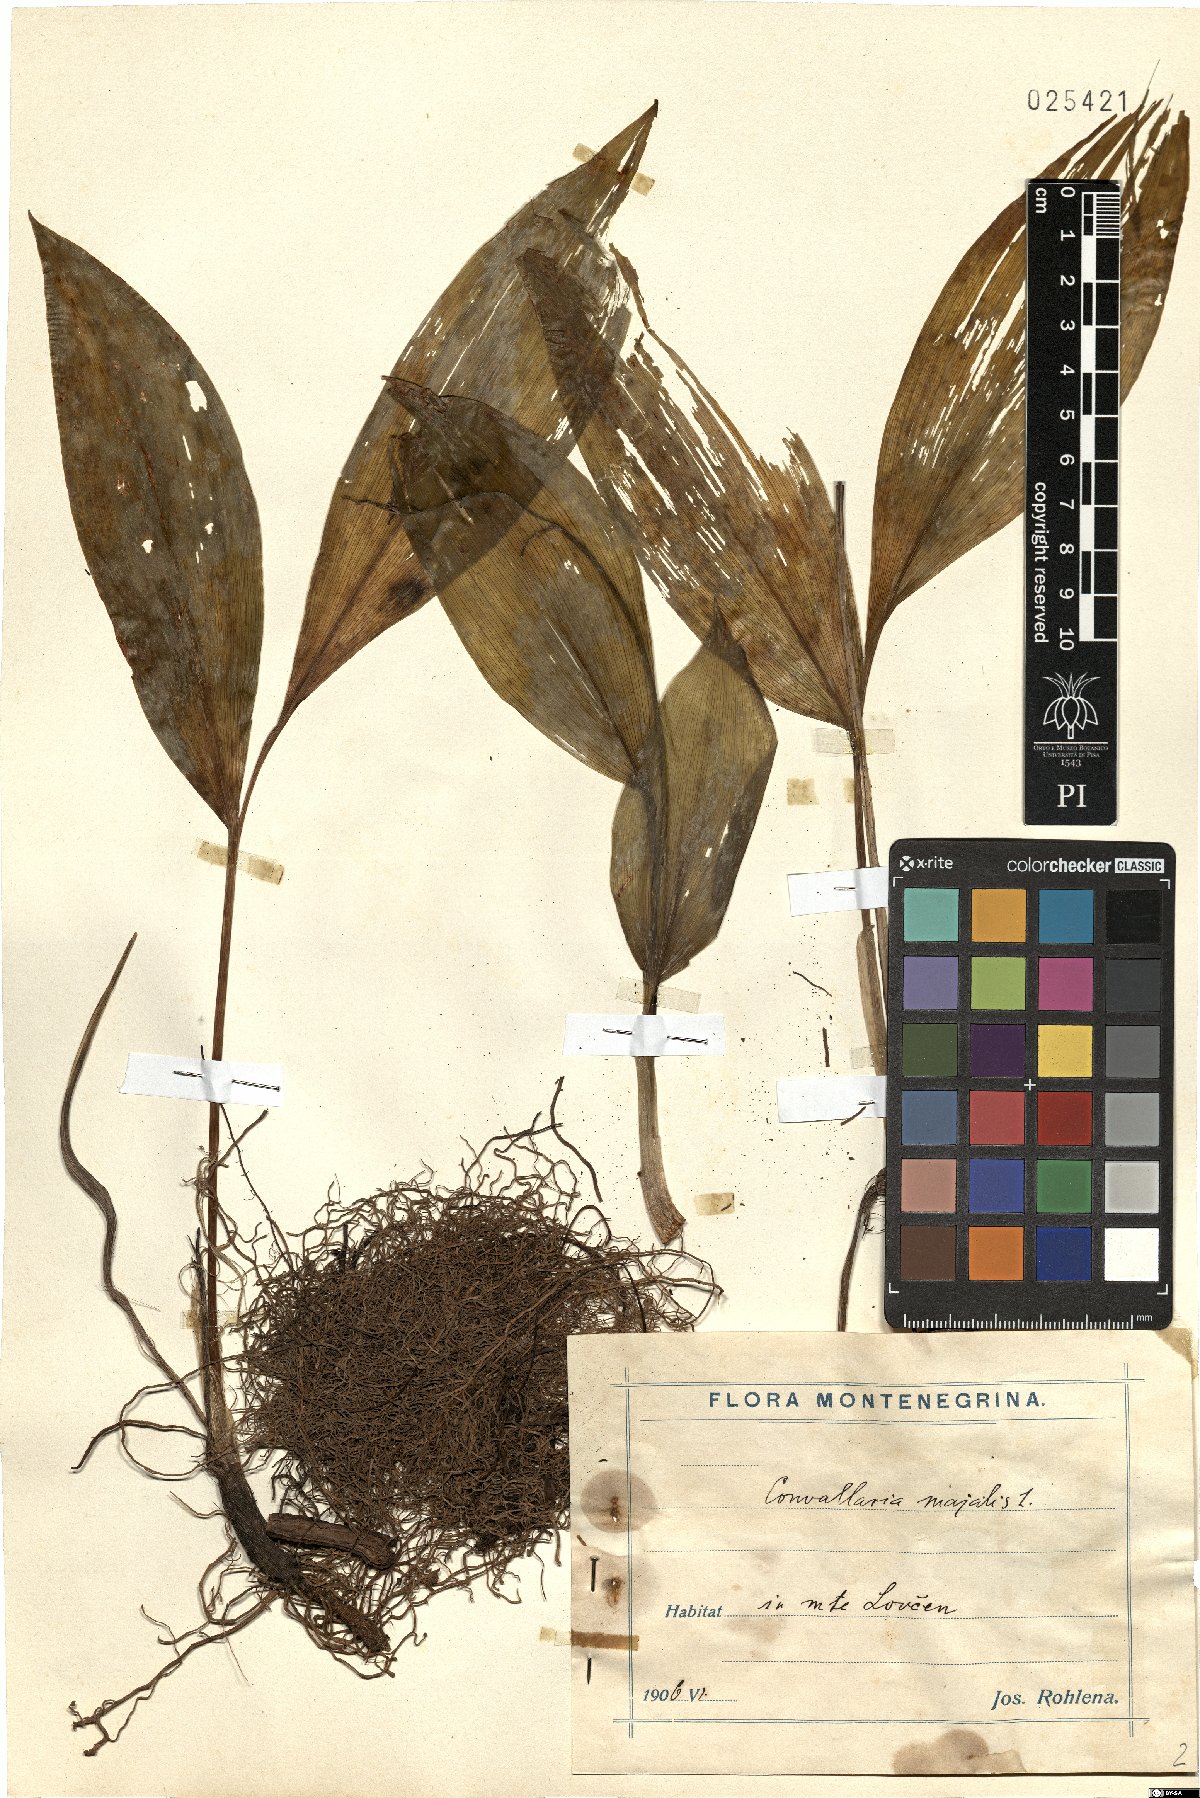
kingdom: Plantae
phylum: Tracheophyta
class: Liliopsida
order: Asparagales
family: Asparagaceae
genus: Convallaria
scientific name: Convallaria majalis
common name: Lily-of-the-valley
